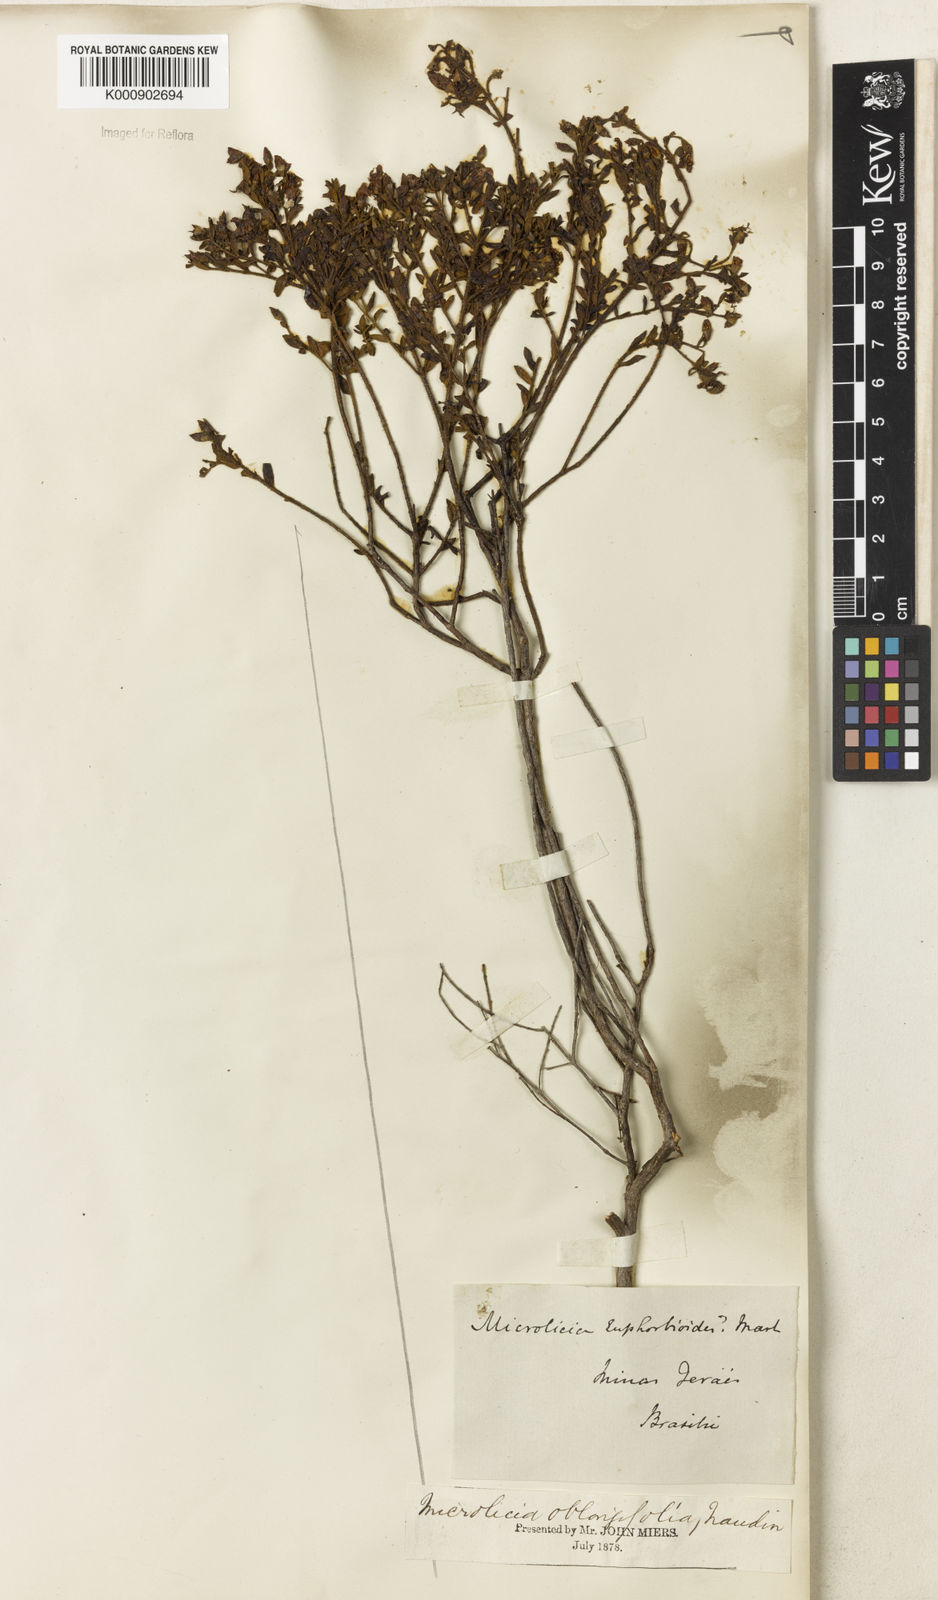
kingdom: Plantae
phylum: Tracheophyta
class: Magnoliopsida
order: Myrtales
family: Melastomataceae
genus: Microlicia
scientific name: Microlicia euphorbioides
